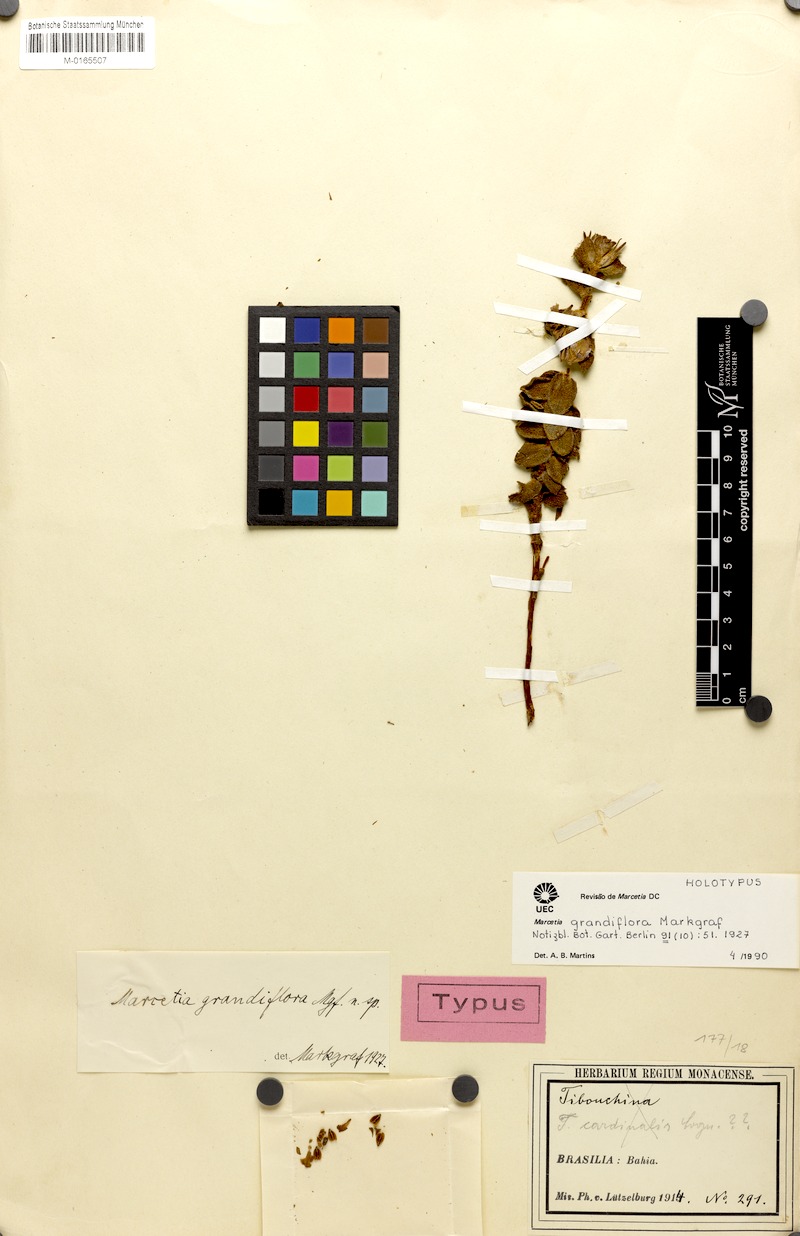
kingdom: Plantae
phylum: Tracheophyta
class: Magnoliopsida
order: Myrtales
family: Melastomataceae
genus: Marcetia
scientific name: Marcetia grandiflora
